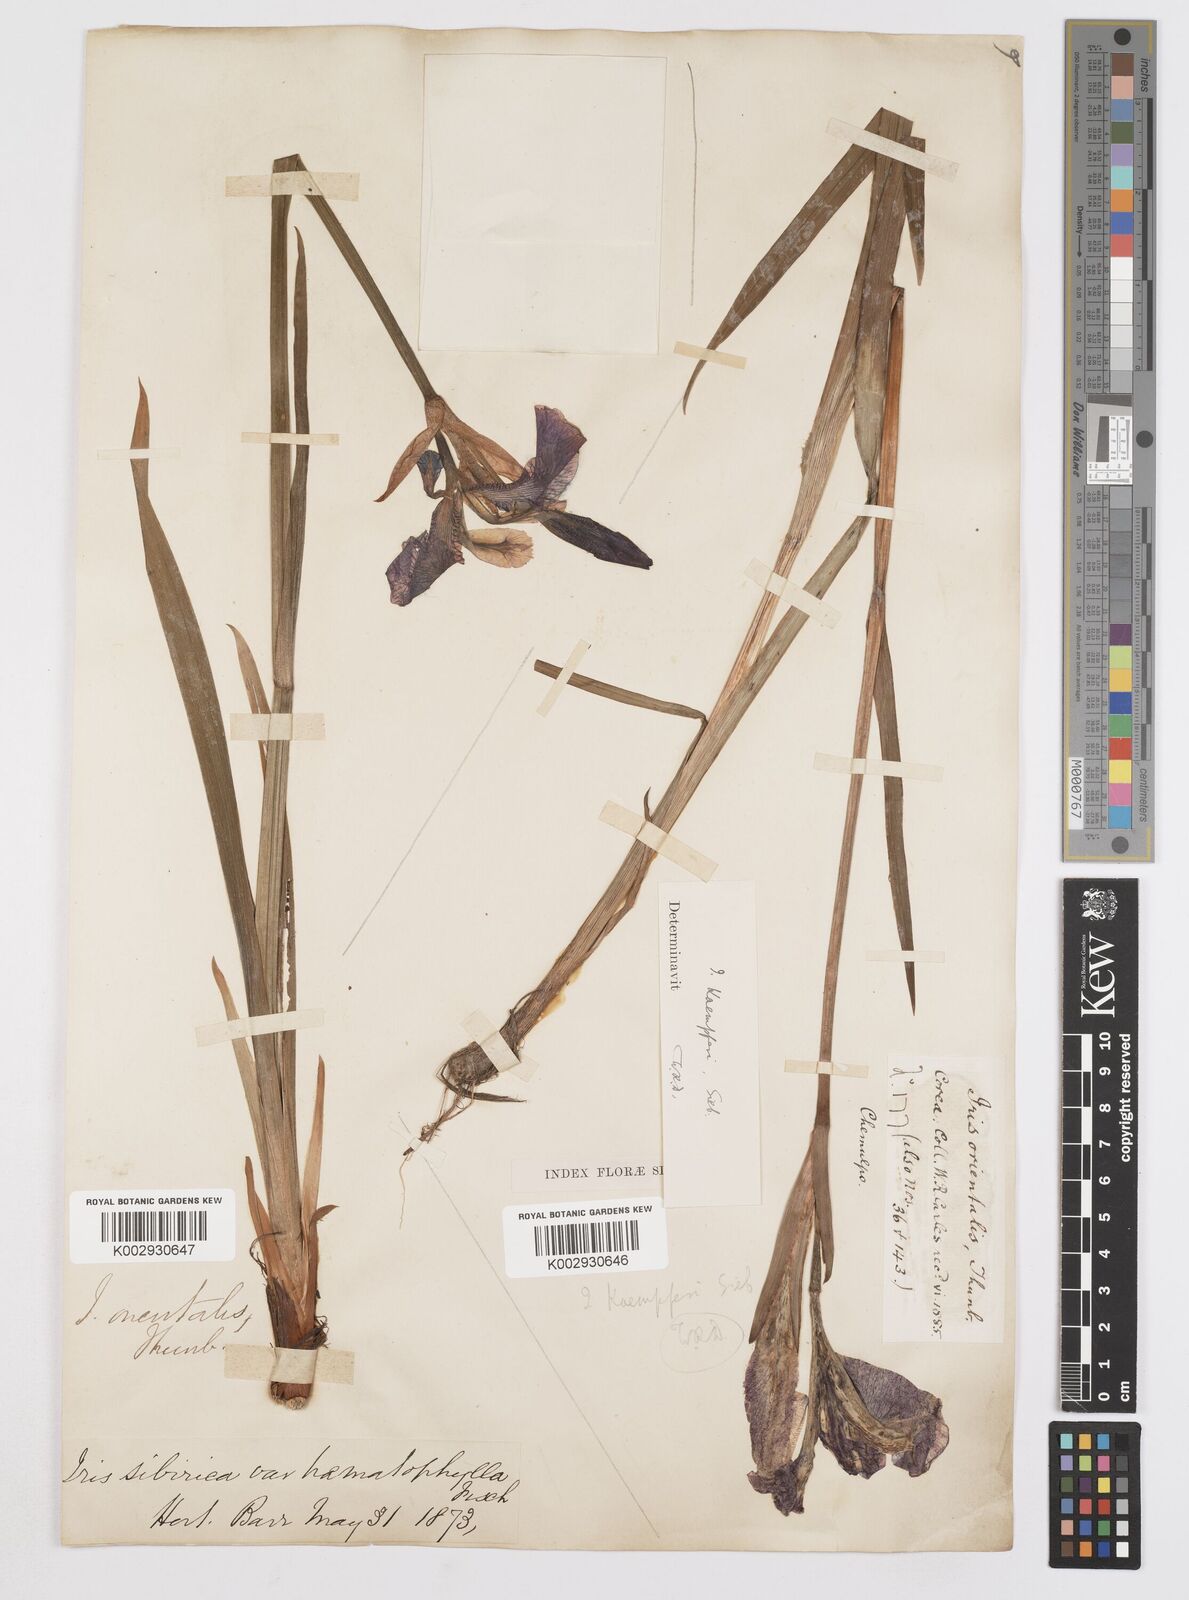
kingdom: Plantae
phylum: Tracheophyta
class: Liliopsida
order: Asparagales
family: Iridaceae
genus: Iris
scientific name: Iris ensata
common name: Beaked iris
